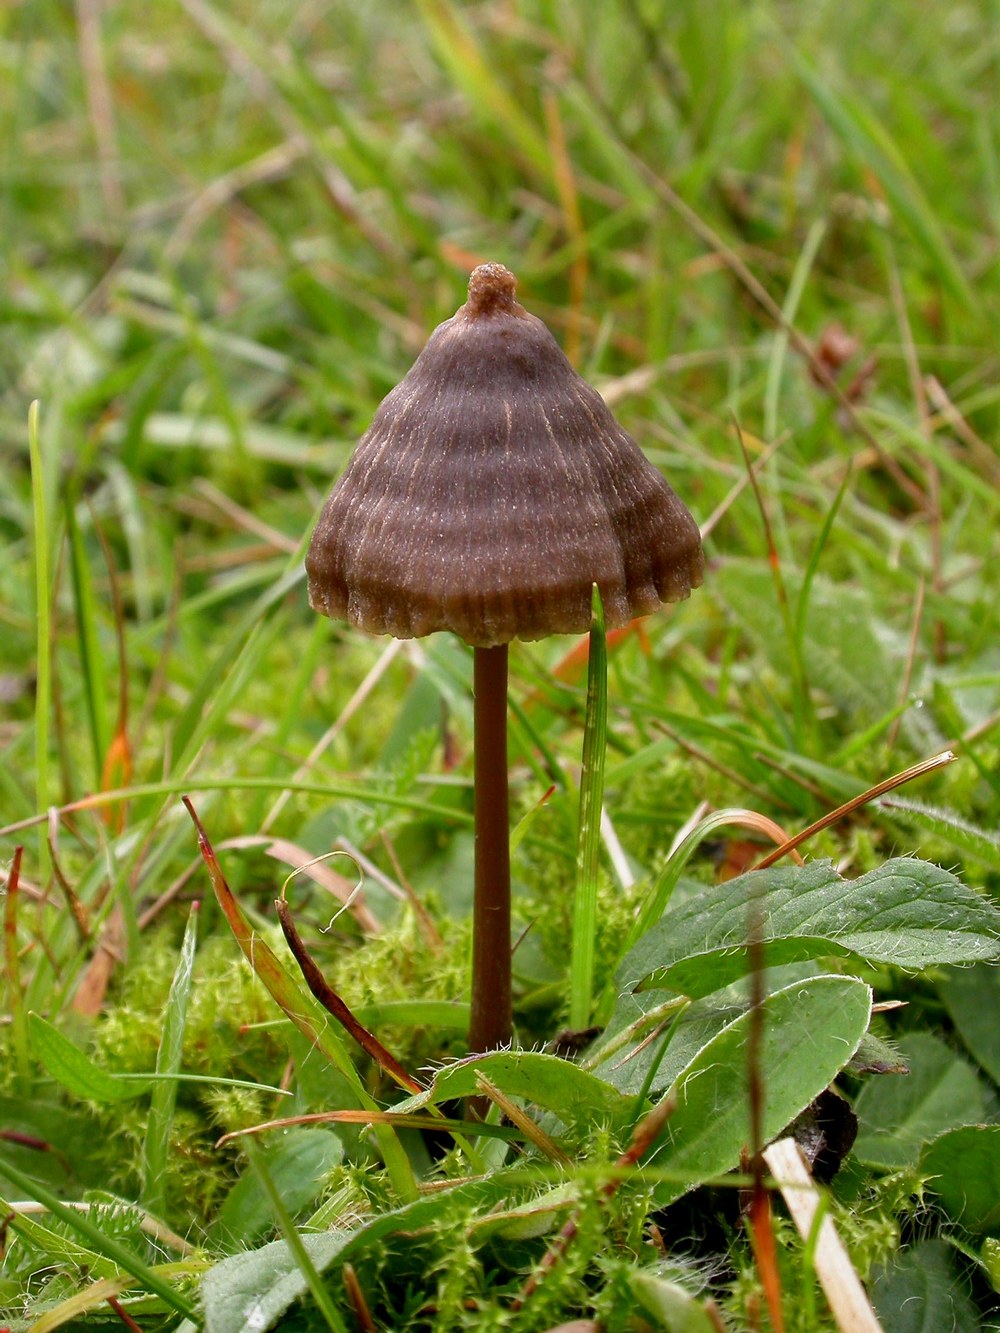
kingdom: Fungi
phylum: Basidiomycota
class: Agaricomycetes
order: Agaricales
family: Entolomataceae
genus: Entoloma
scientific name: Entoloma clandestinum
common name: tykbladet rødblad
